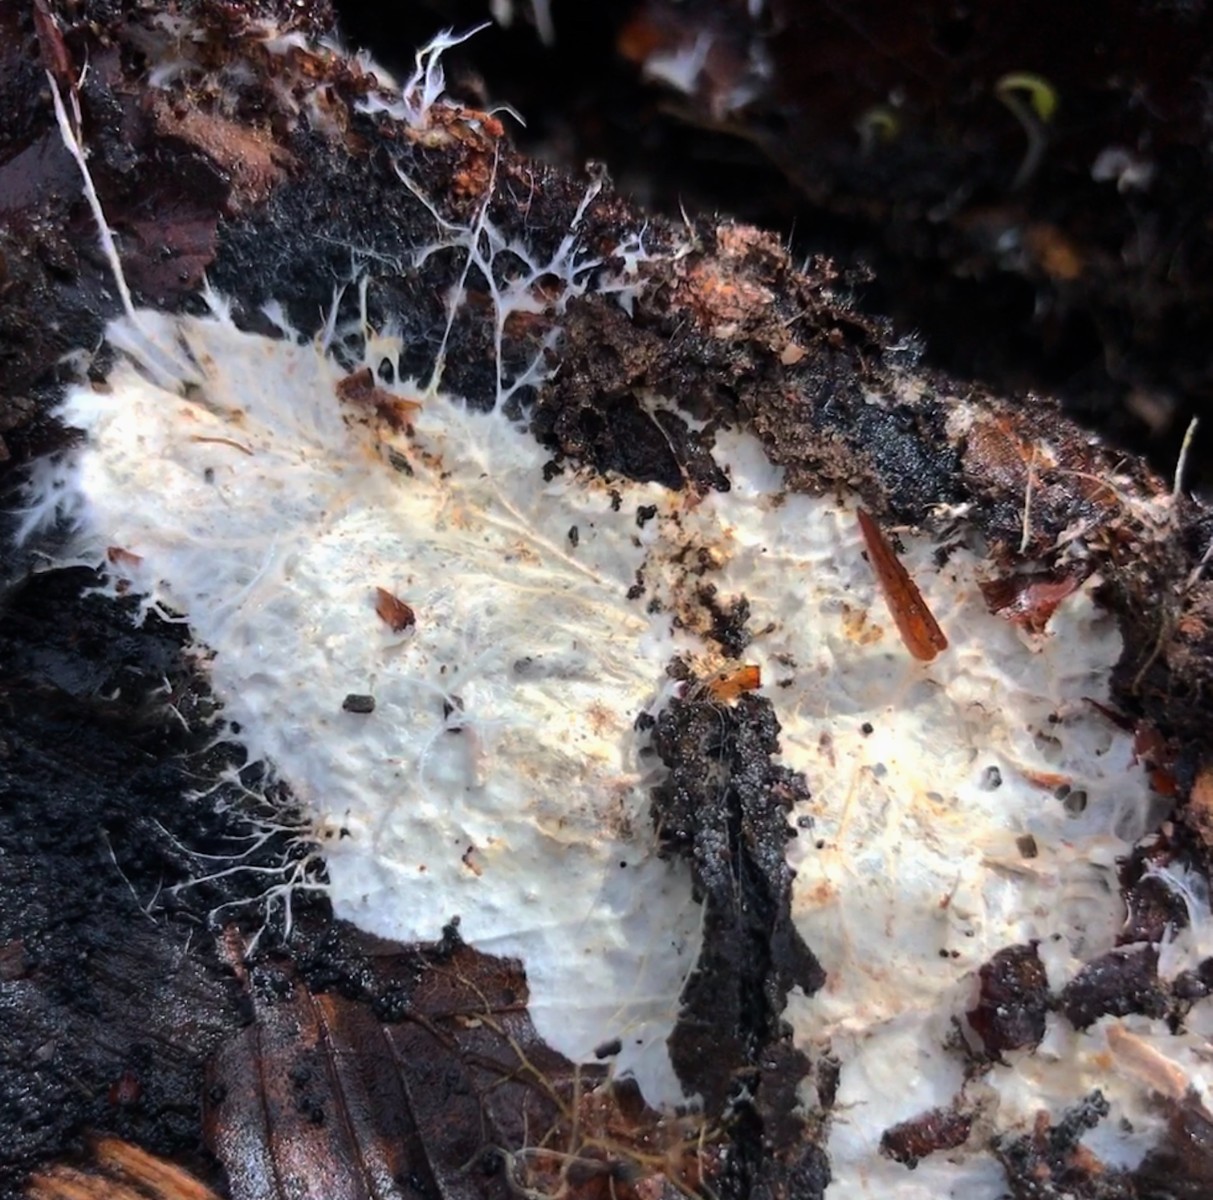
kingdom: Fungi
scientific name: Fungi
